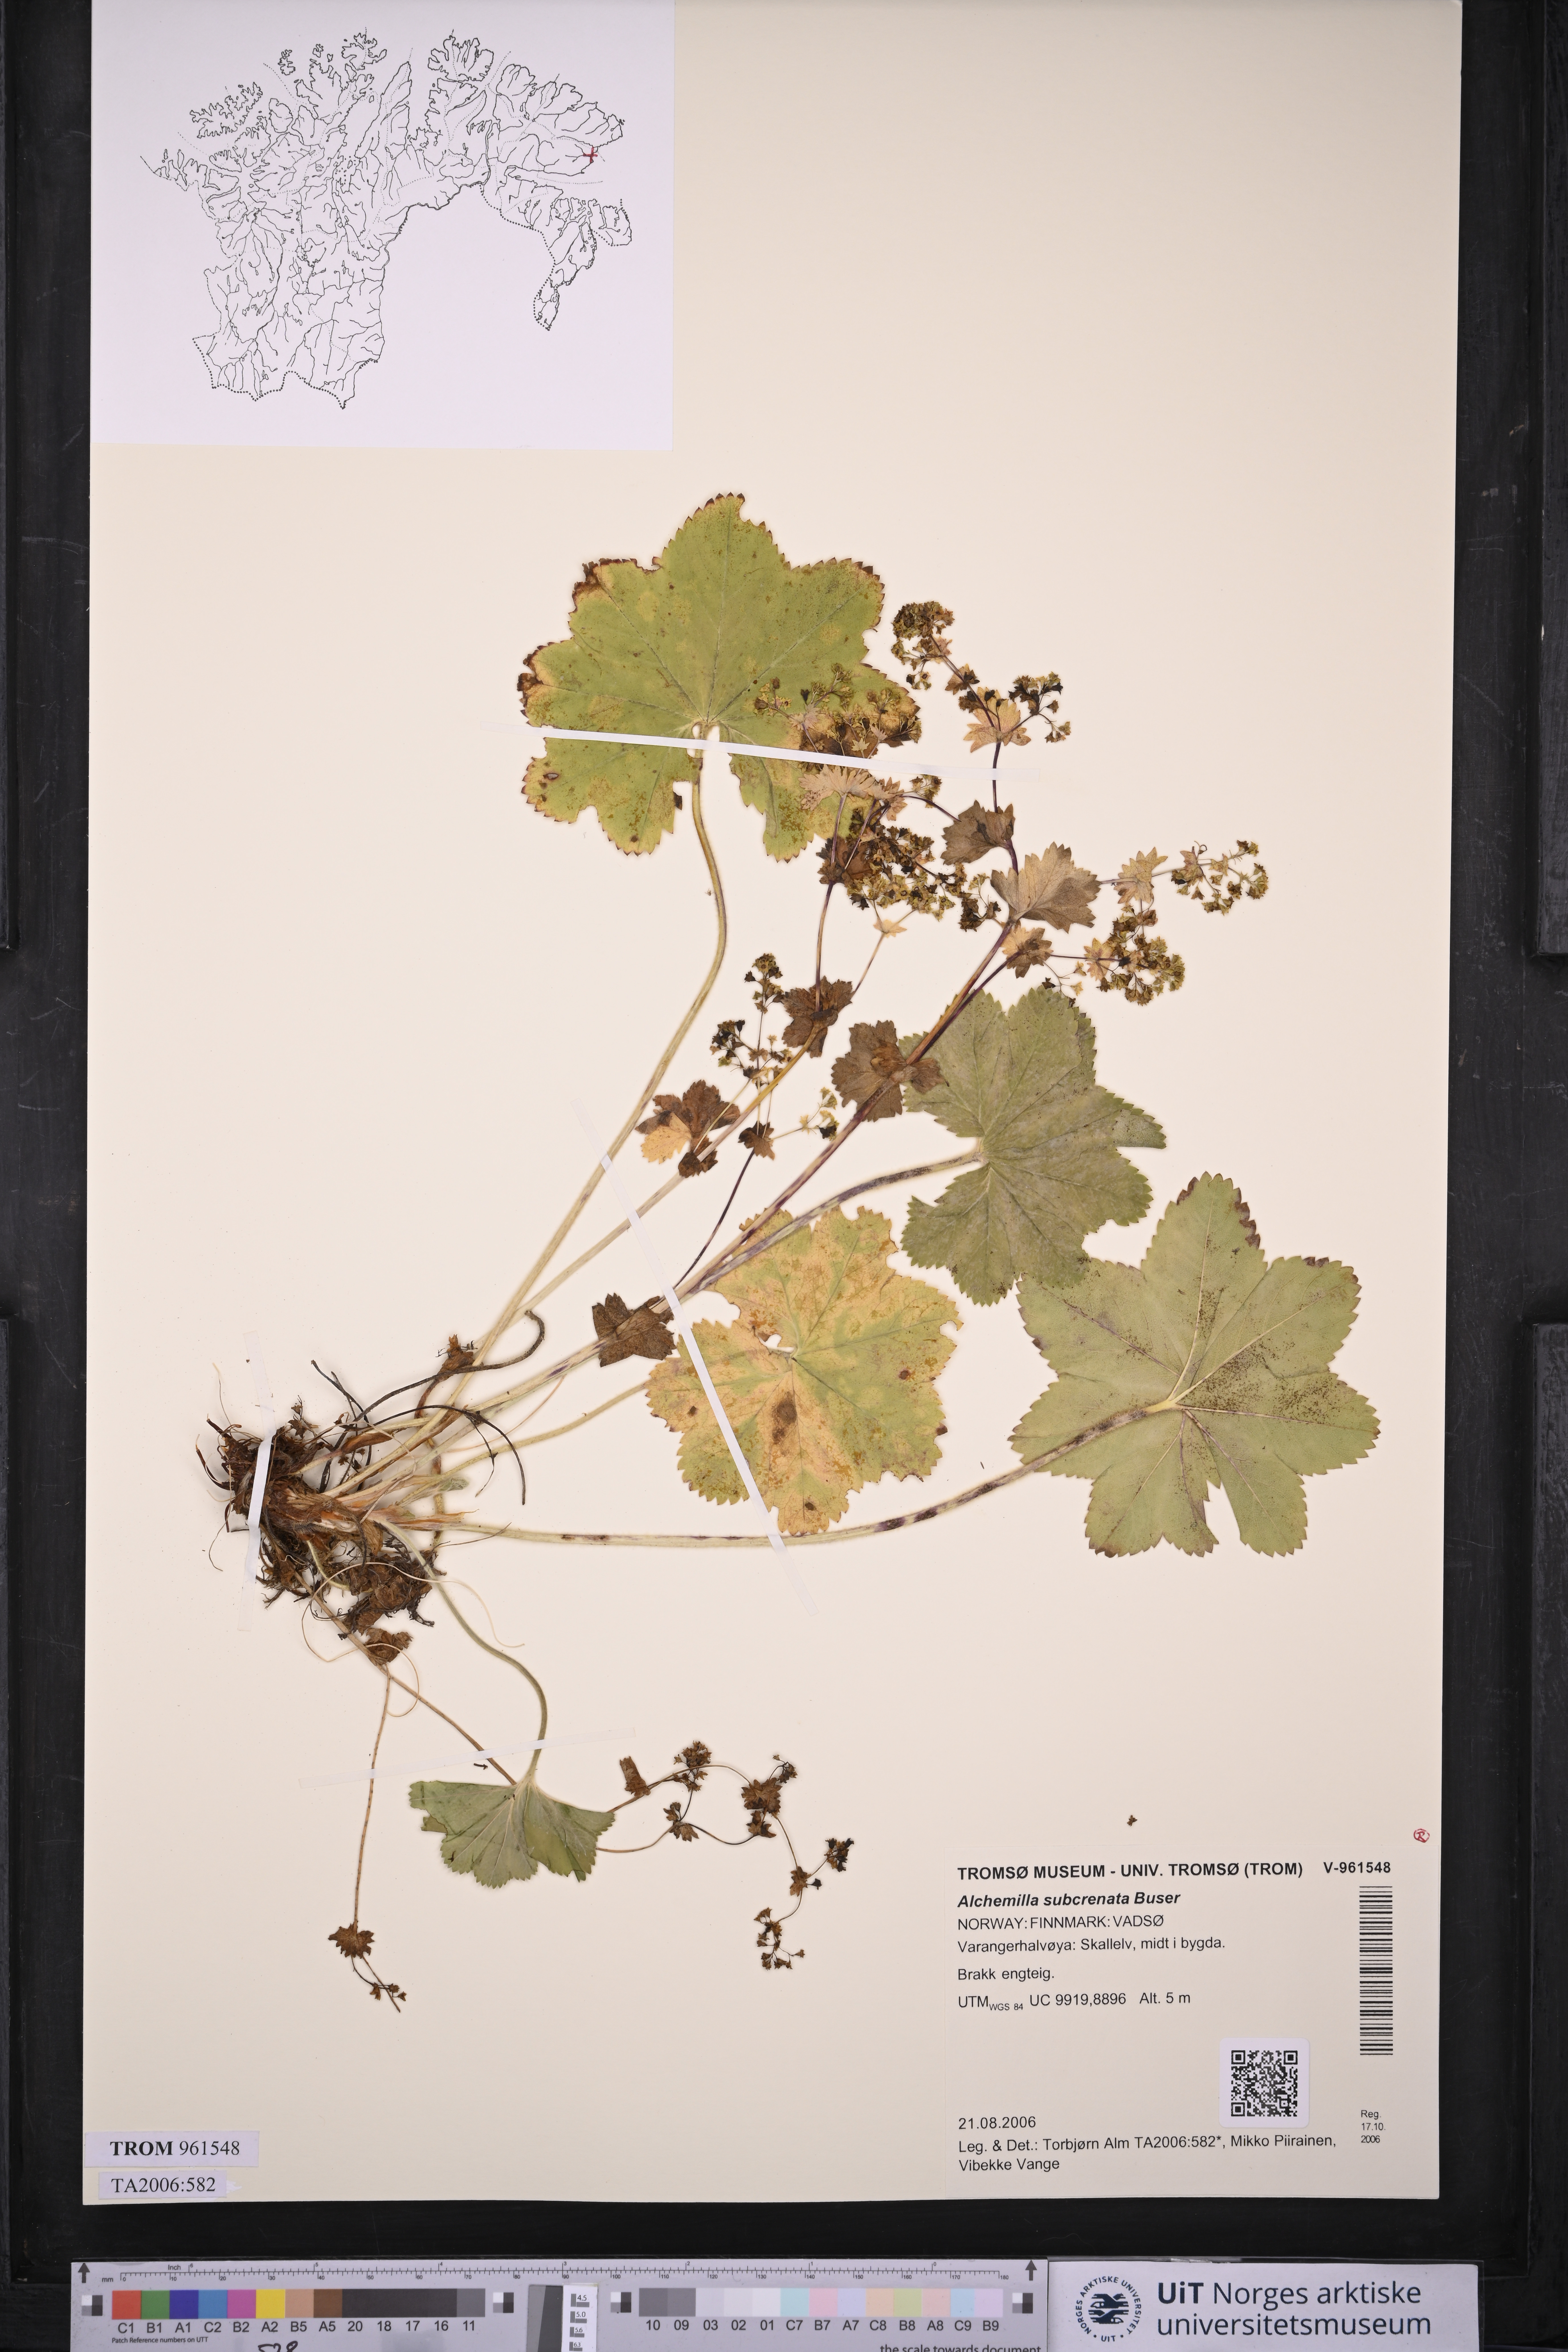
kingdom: Plantae
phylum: Tracheophyta
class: Magnoliopsida
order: Rosales
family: Rosaceae
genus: Alchemilla
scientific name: Alchemilla subcrenata
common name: Broadtooth lady's mantle
